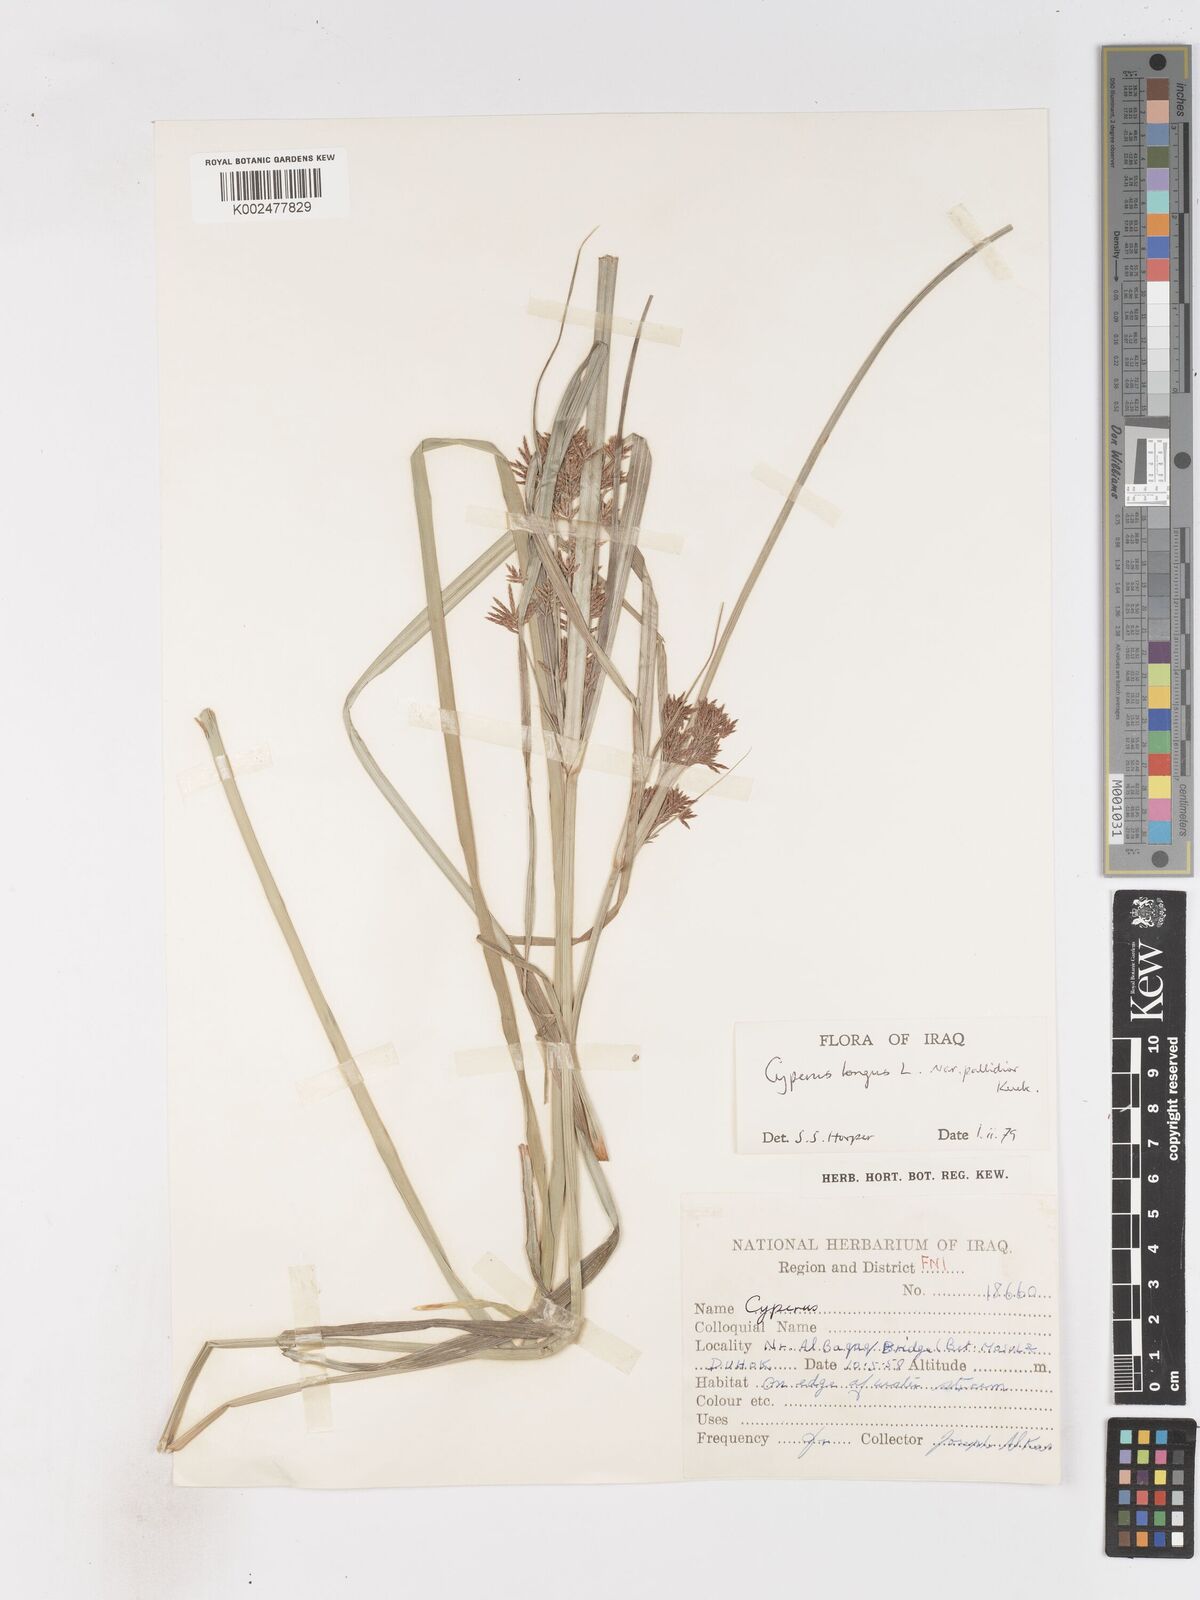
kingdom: Plantae
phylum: Tracheophyta
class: Liliopsida
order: Poales
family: Cyperaceae
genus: Cyperus
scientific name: Cyperus longus
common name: Galingale
